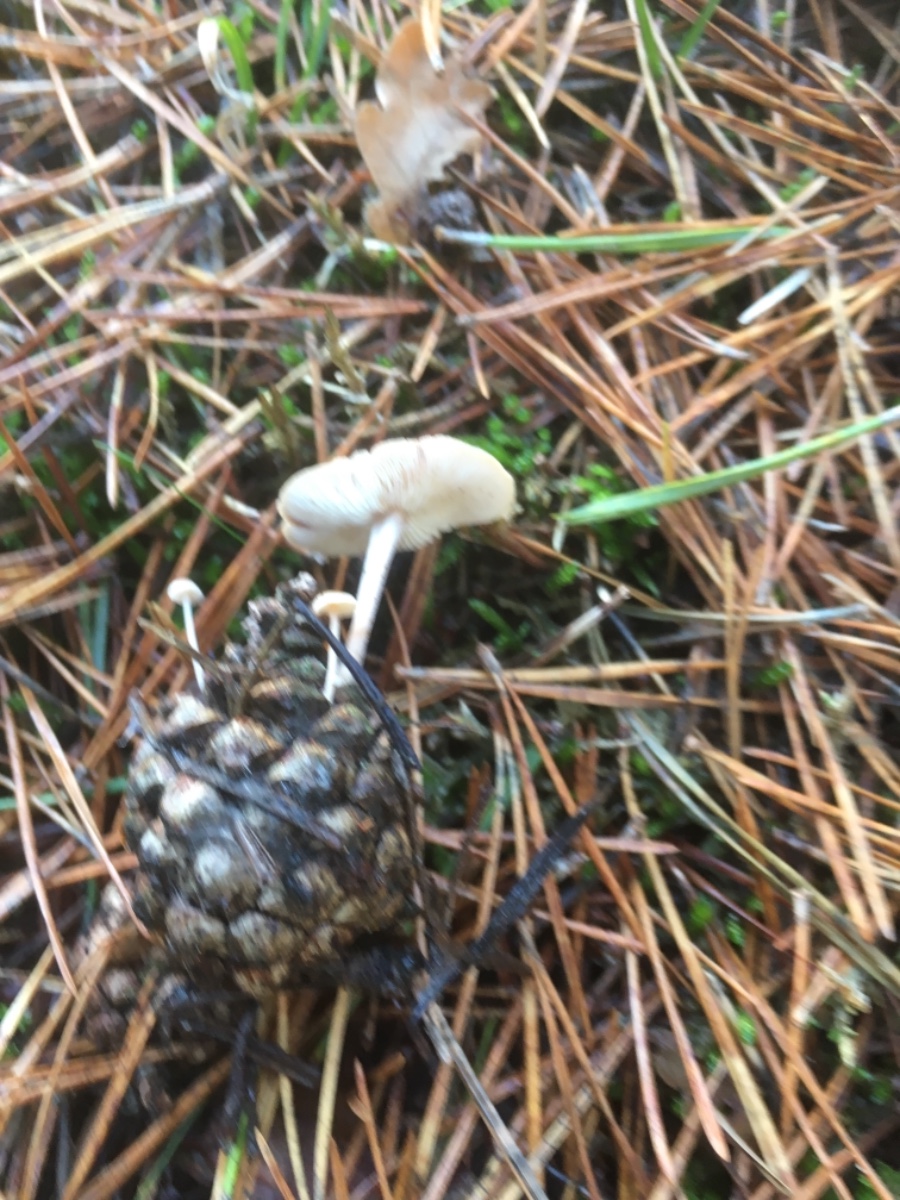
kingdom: Fungi
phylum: Basidiomycota
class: Agaricomycetes
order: Agaricales
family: Marasmiaceae
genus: Baeospora
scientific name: Baeospora myosura
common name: koglebruskhat
